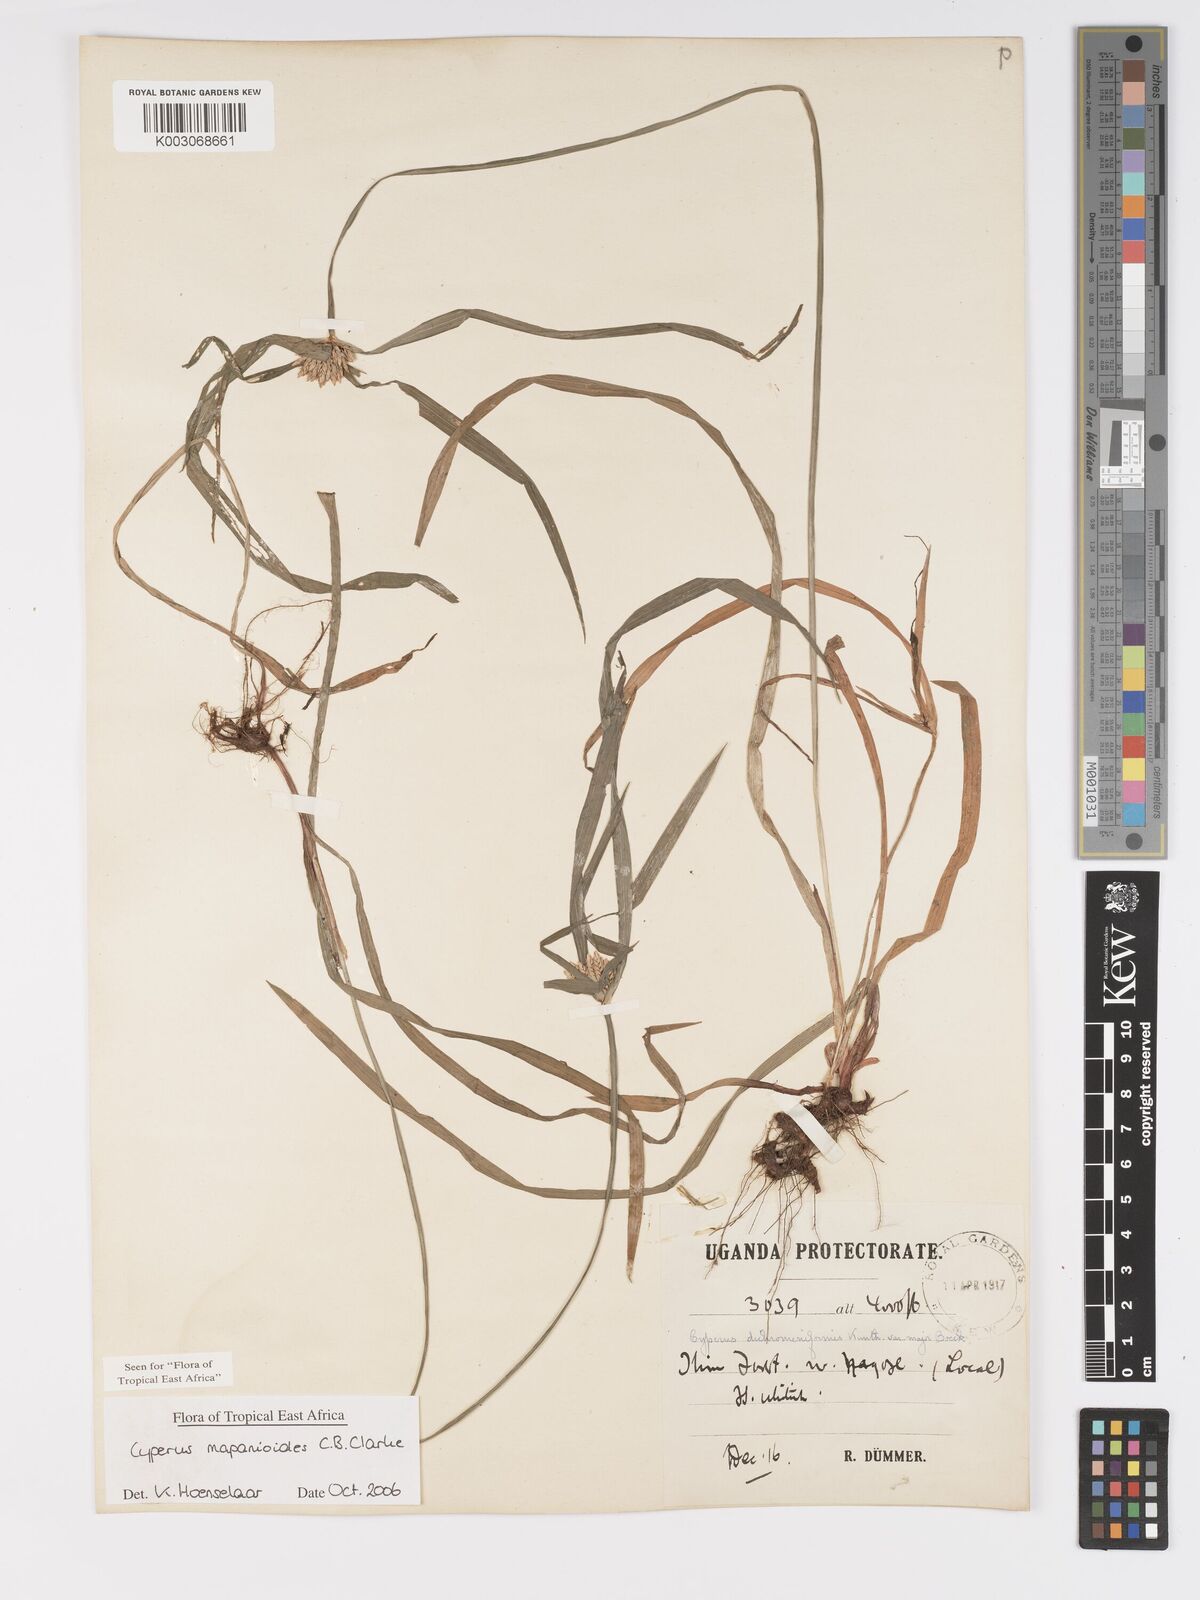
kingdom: Plantae
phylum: Tracheophyta
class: Liliopsida
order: Poales
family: Cyperaceae
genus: Cyperus
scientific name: Cyperus mapanioides
